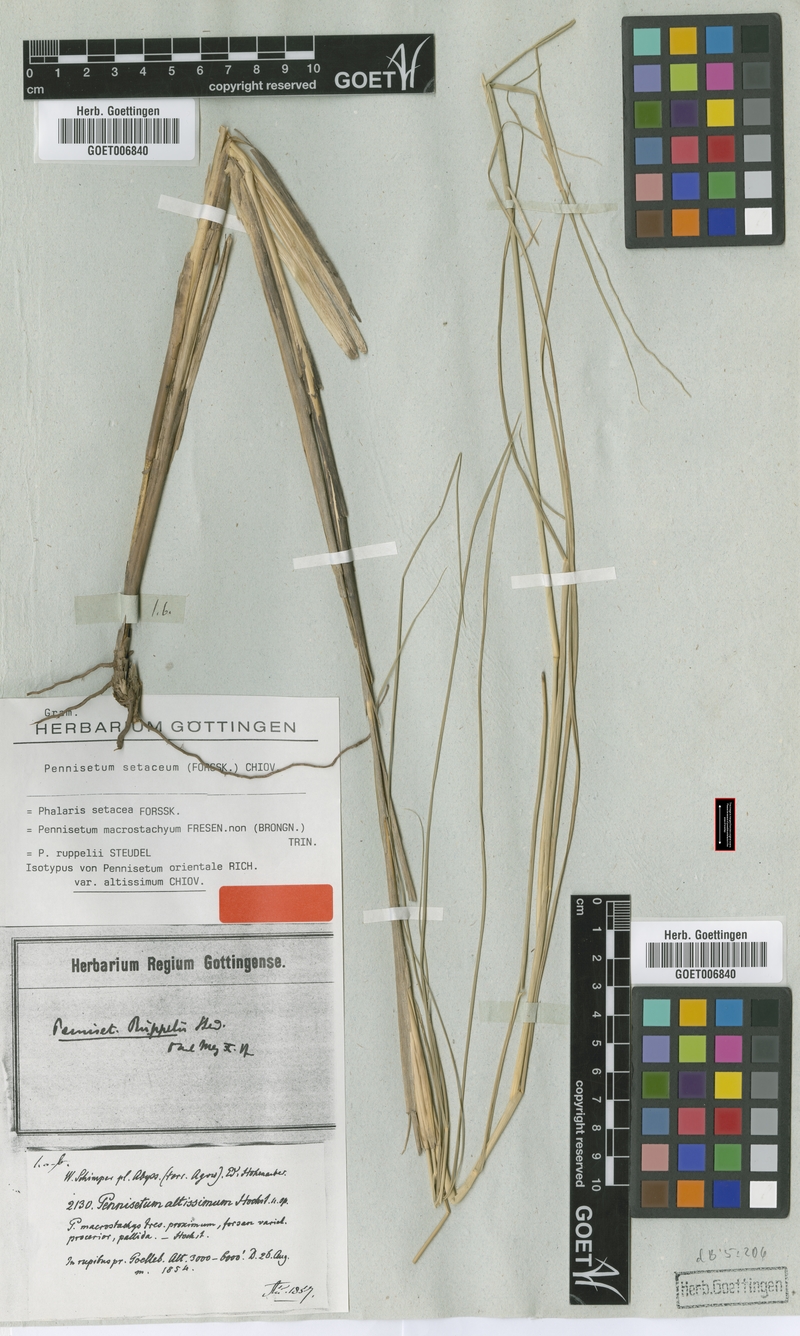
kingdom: Plantae
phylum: Tracheophyta
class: Liliopsida
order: Poales
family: Poaceae
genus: Cenchrus
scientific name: Cenchrus setaceus
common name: Crimson fountaingrass
